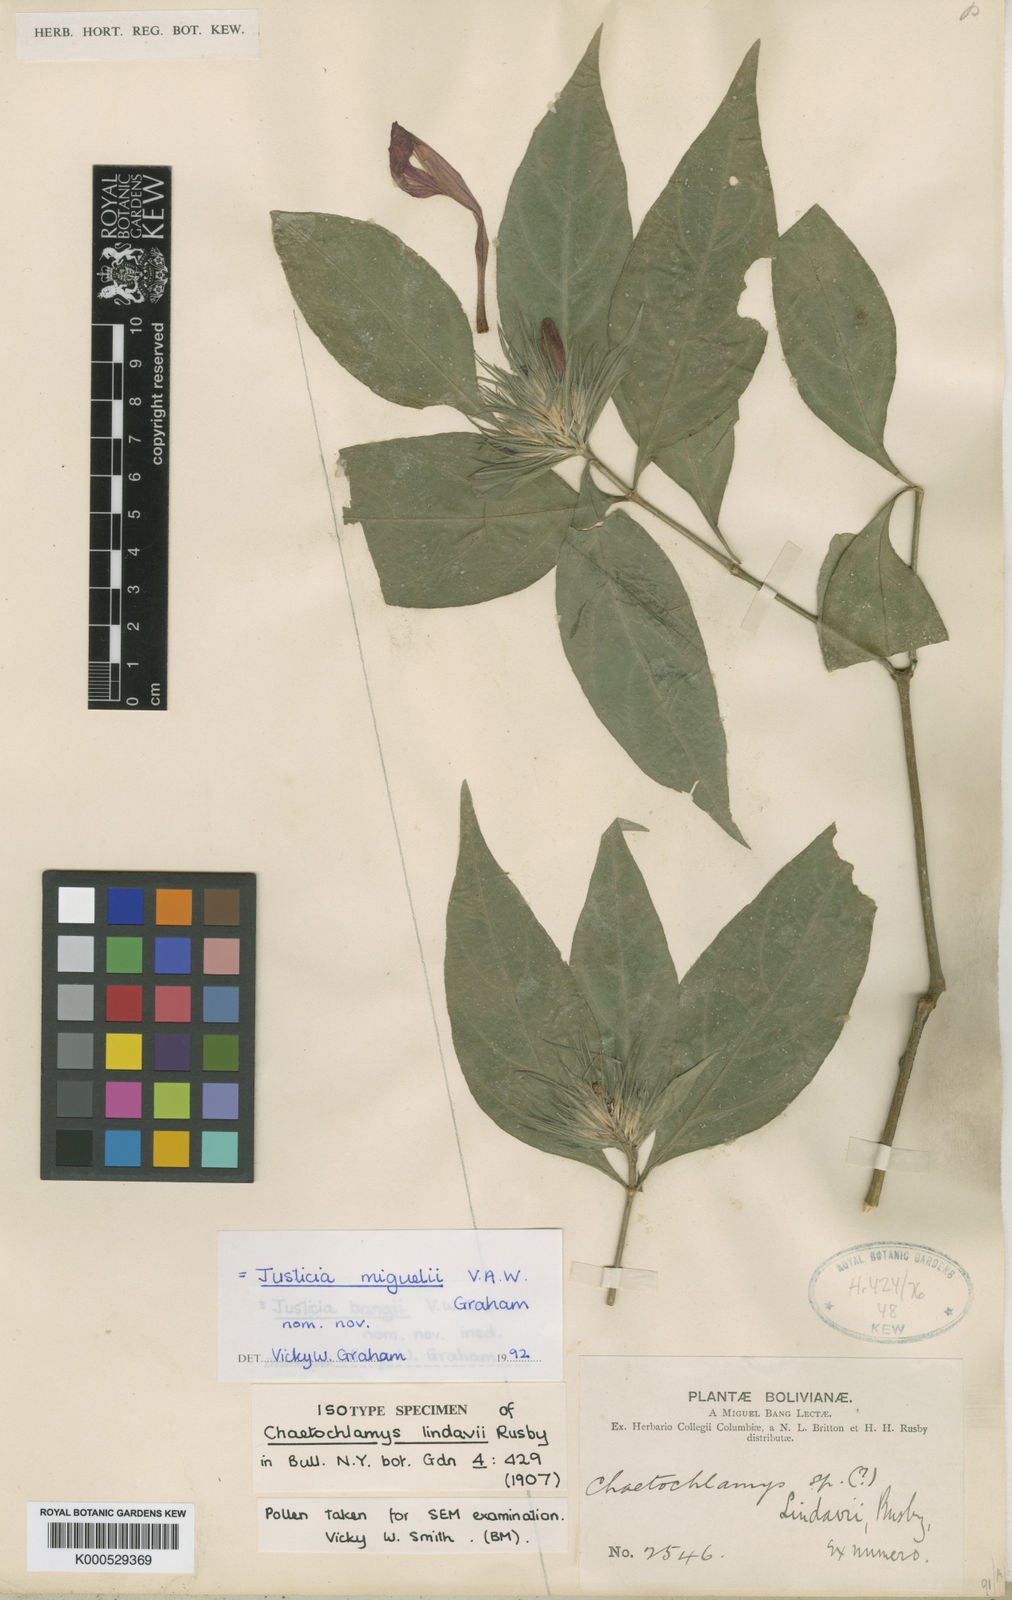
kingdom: Plantae
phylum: Tracheophyta
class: Magnoliopsida
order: Lamiales
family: Acanthaceae
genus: Justicia
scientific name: Justicia miguelii
